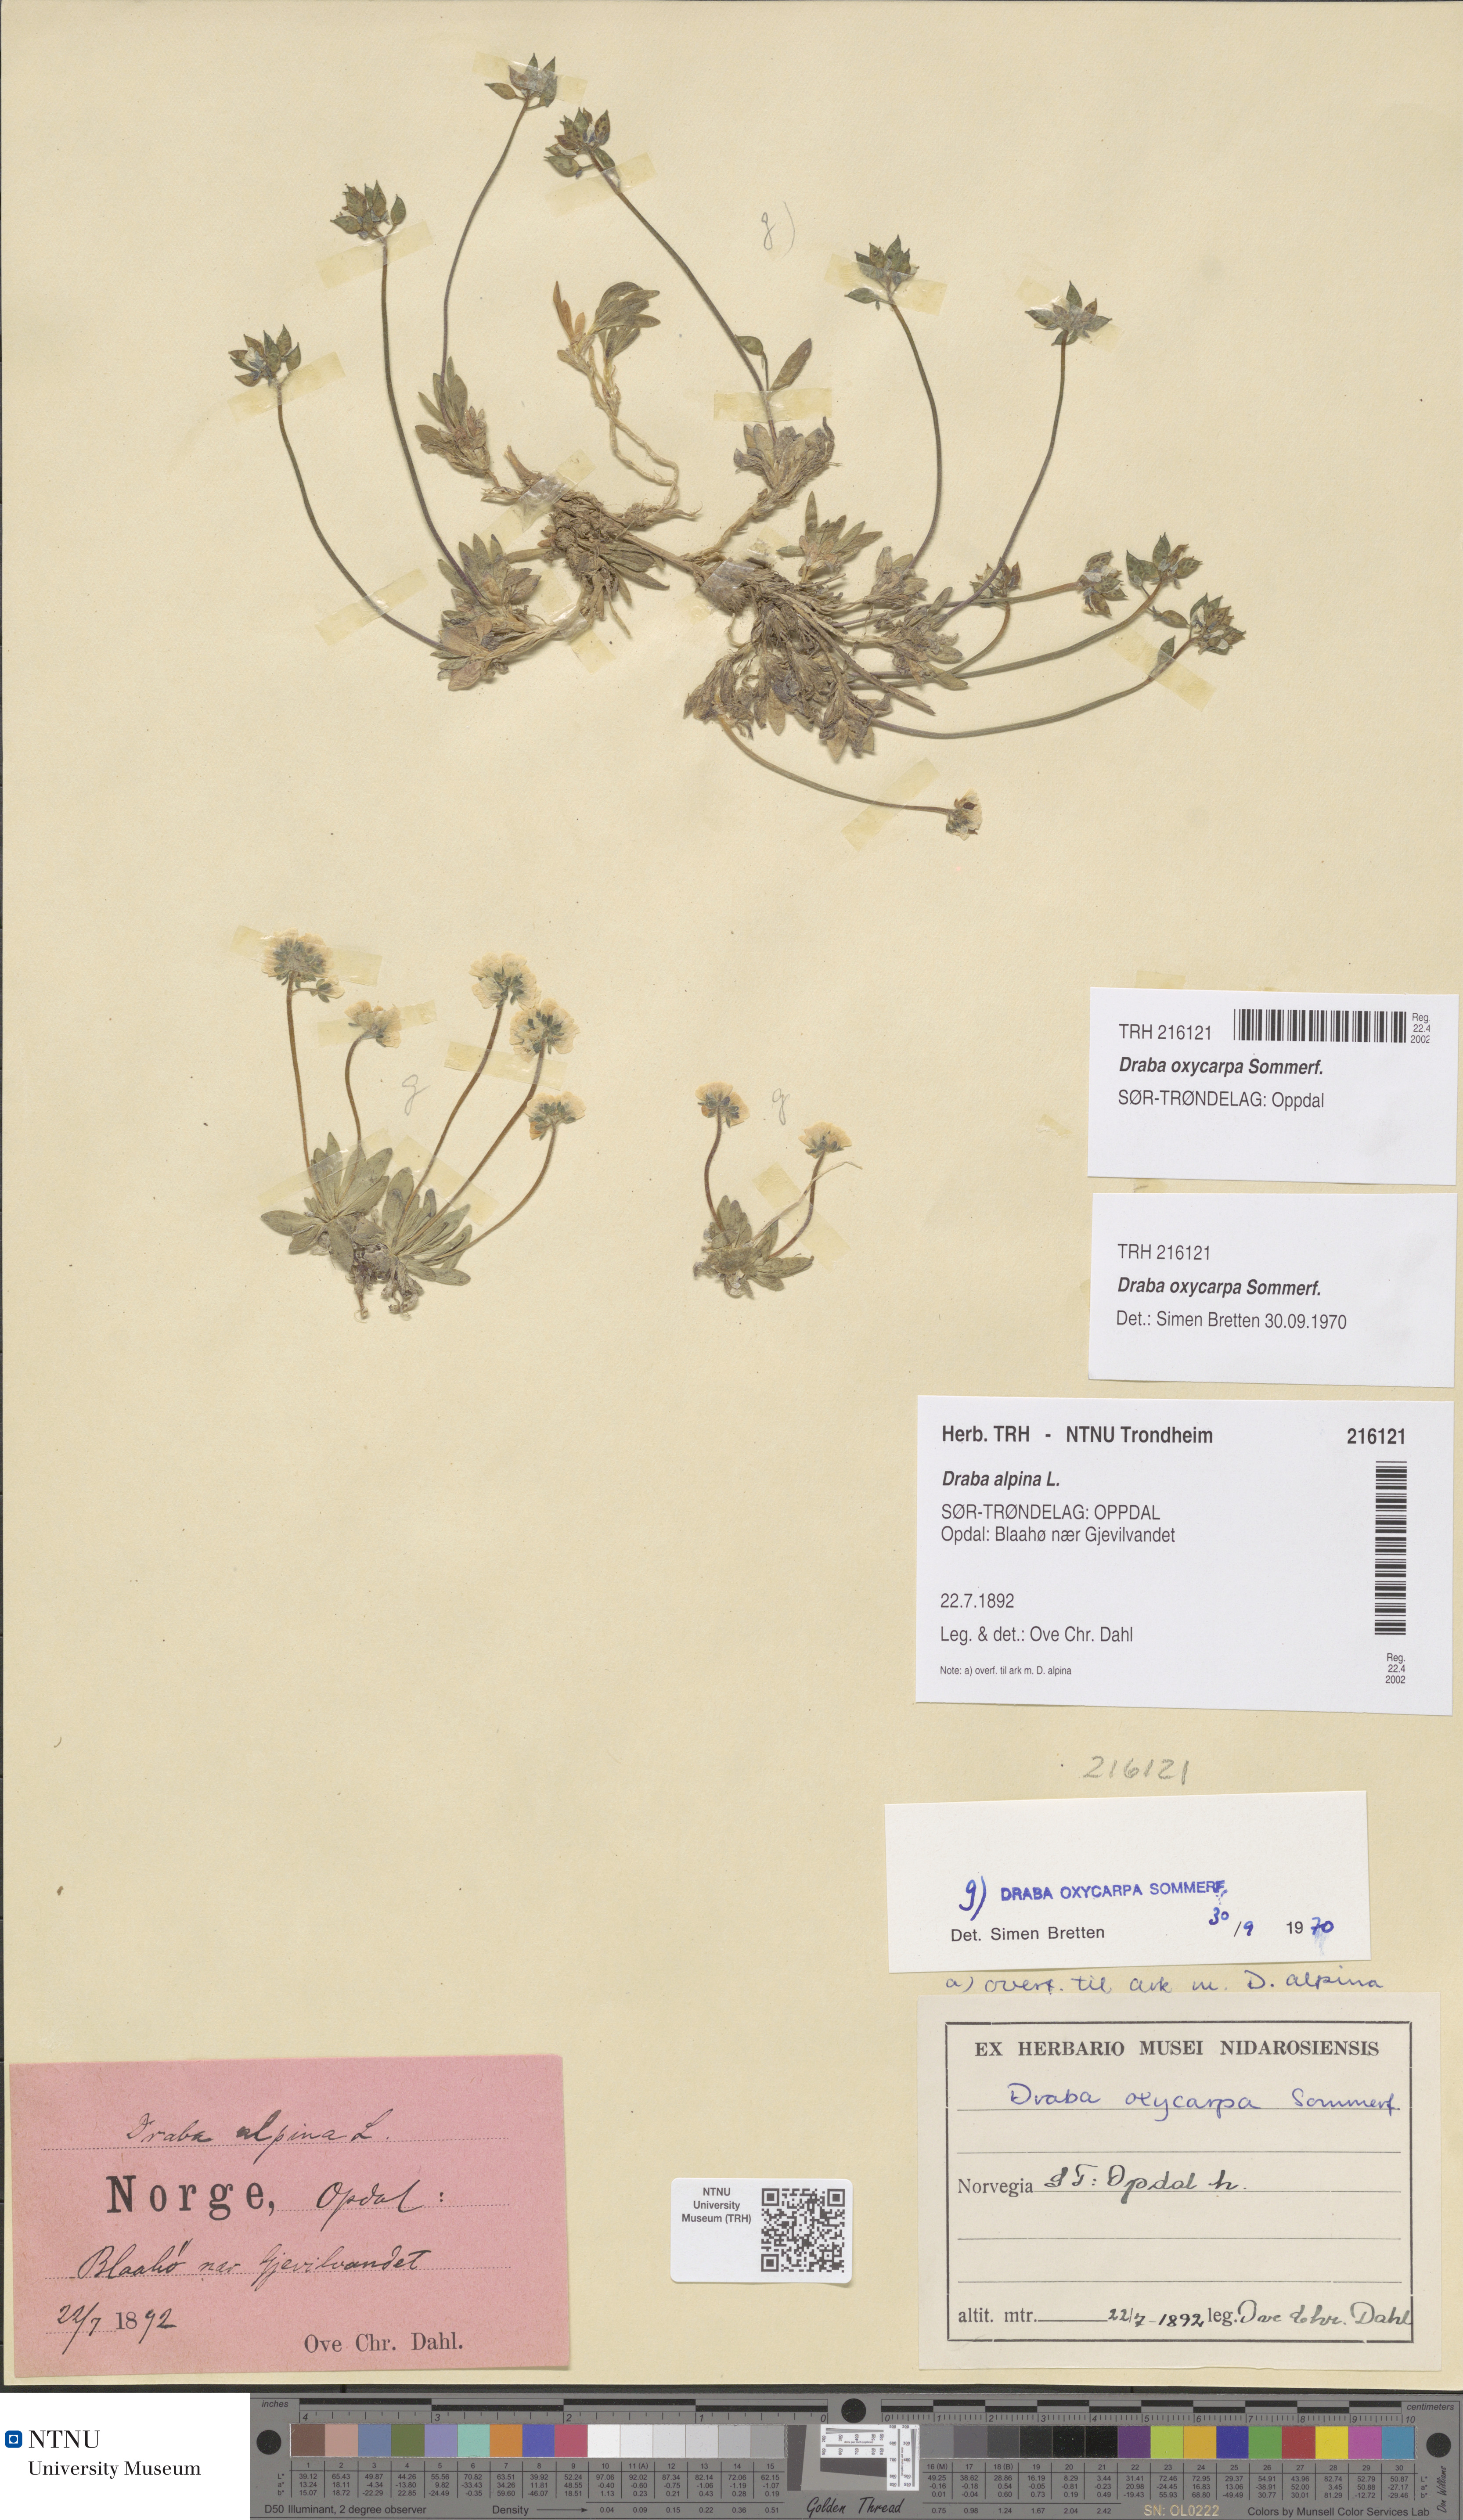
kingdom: Plantae
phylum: Tracheophyta
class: Magnoliopsida
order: Brassicales
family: Brassicaceae
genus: Draba
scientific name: Draba oxycarpa
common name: Sharp-fruited whitlow-grass
